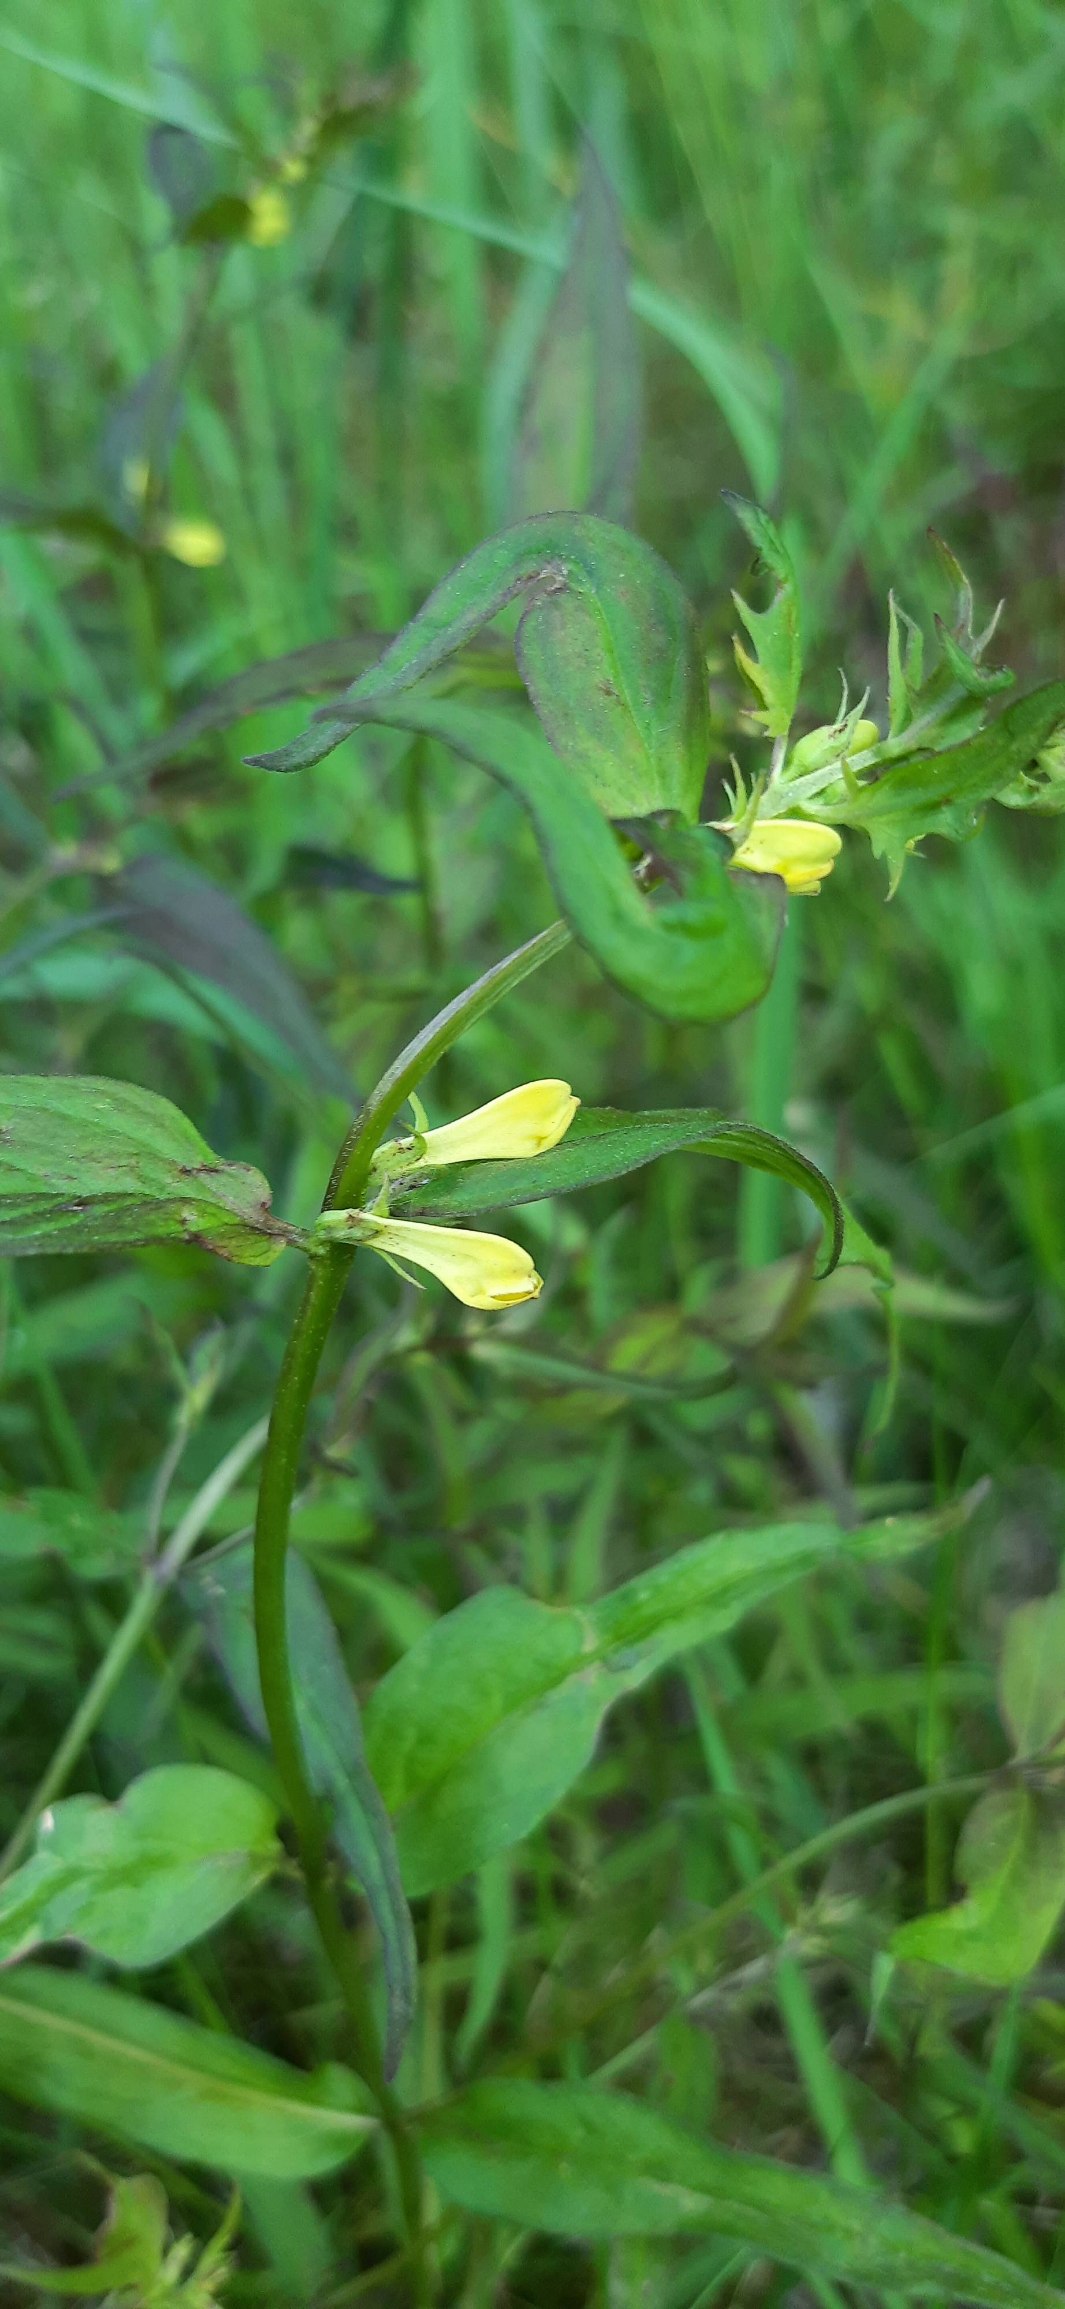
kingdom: Plantae
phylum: Tracheophyta
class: Magnoliopsida
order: Lamiales
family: Orobanchaceae
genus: Melampyrum
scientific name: Melampyrum pratense
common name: Almindelig kohvede
